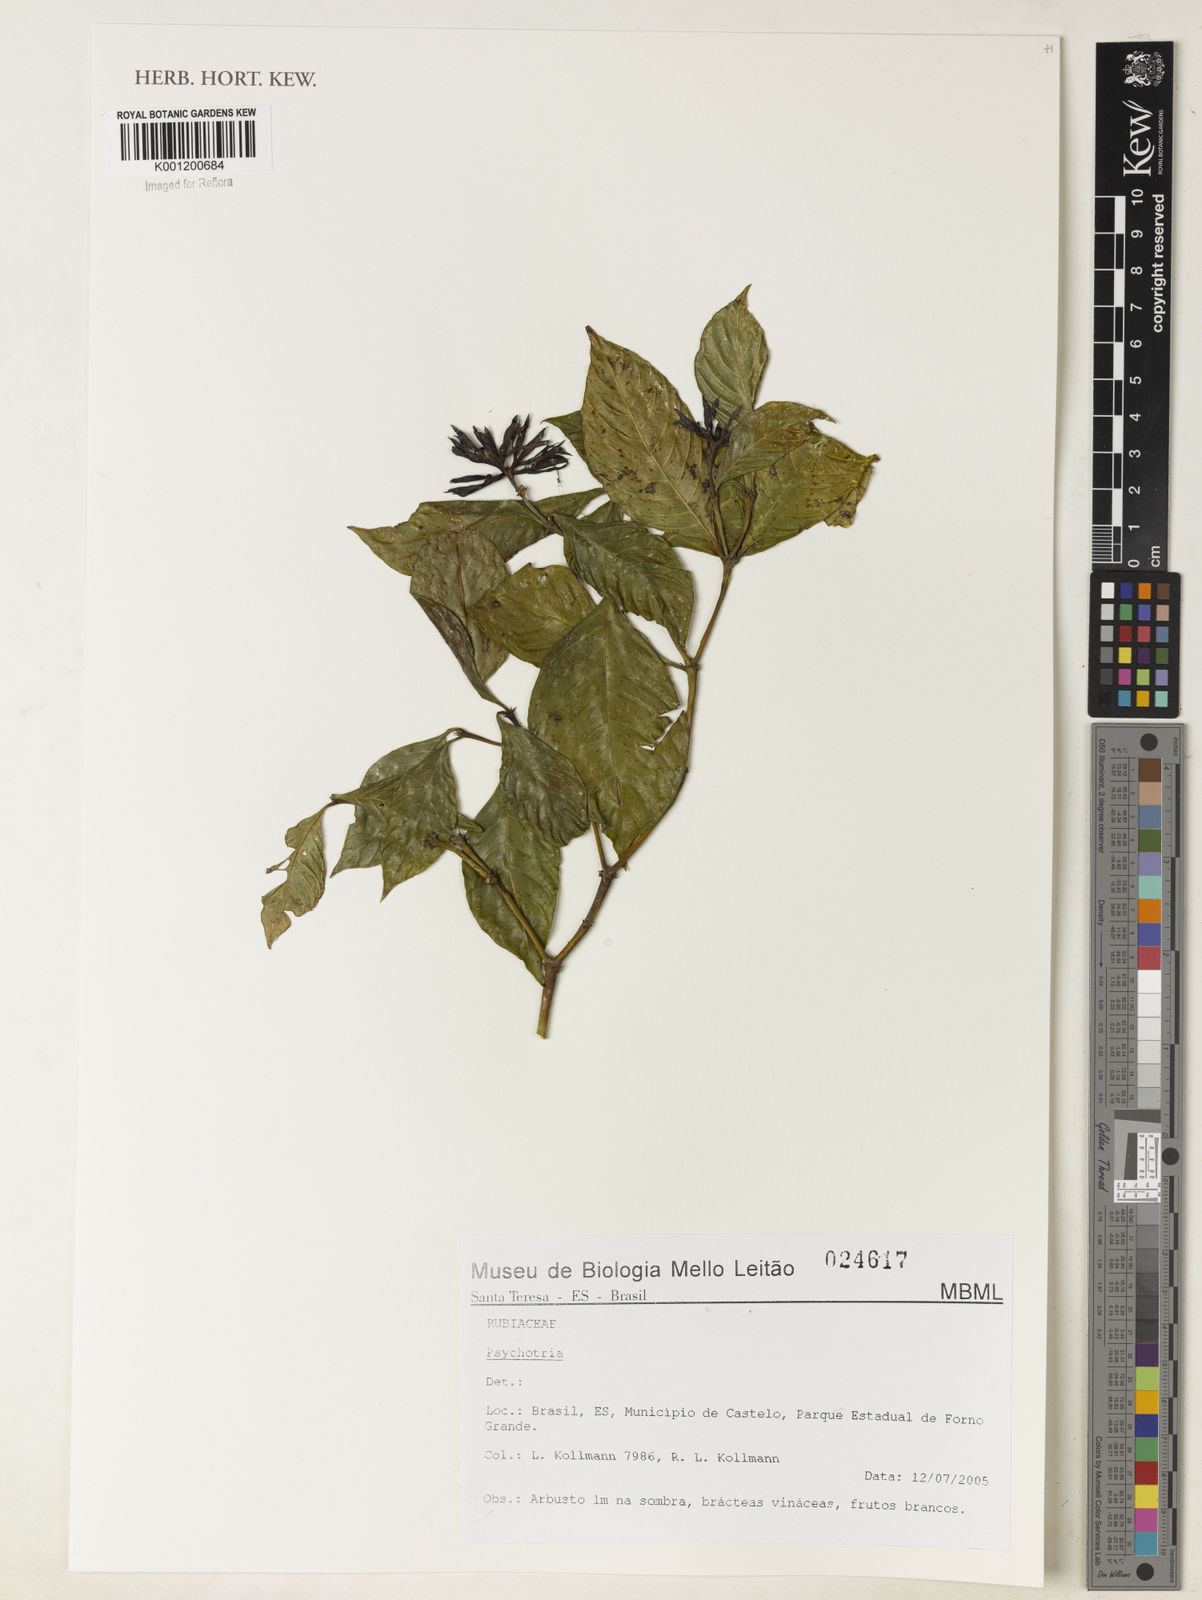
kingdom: Plantae
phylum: Tracheophyta
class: Magnoliopsida
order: Gentianales
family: Rubiaceae
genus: Psychotria
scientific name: Psychotria
